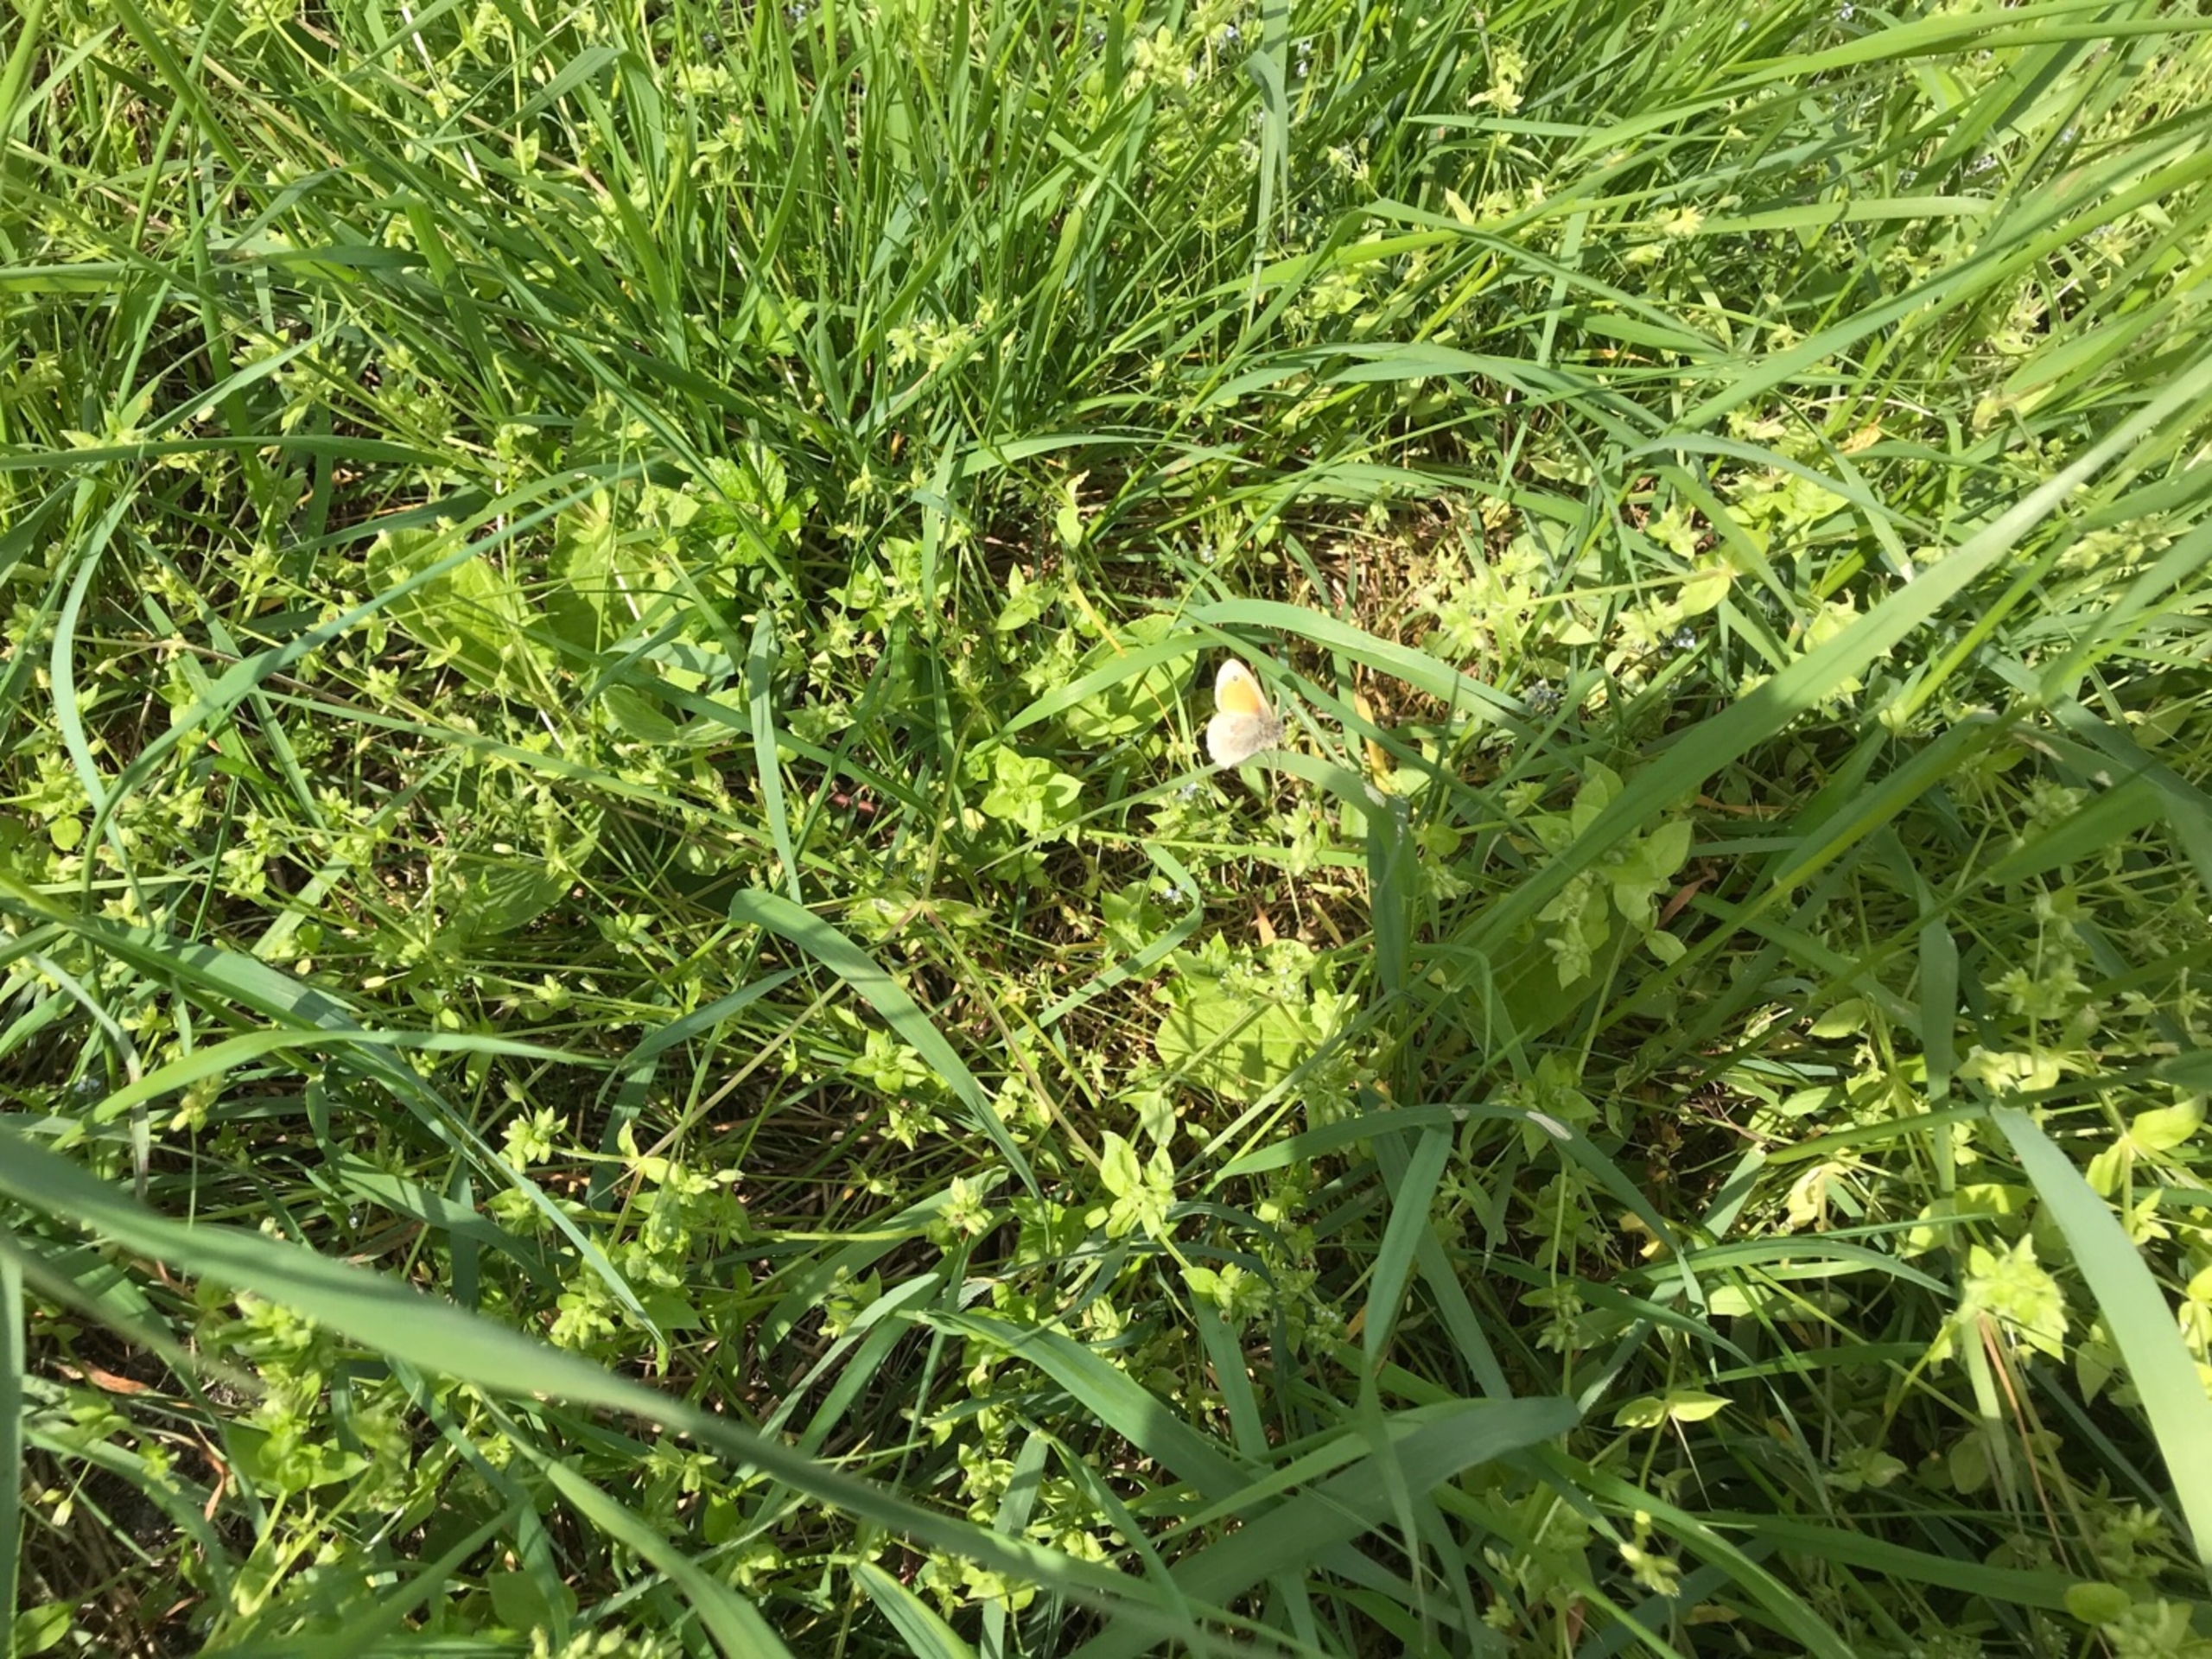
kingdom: Animalia
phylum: Arthropoda
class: Insecta
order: Lepidoptera
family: Nymphalidae
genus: Coenonympha
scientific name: Coenonympha pamphilus
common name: Okkergul randøje
